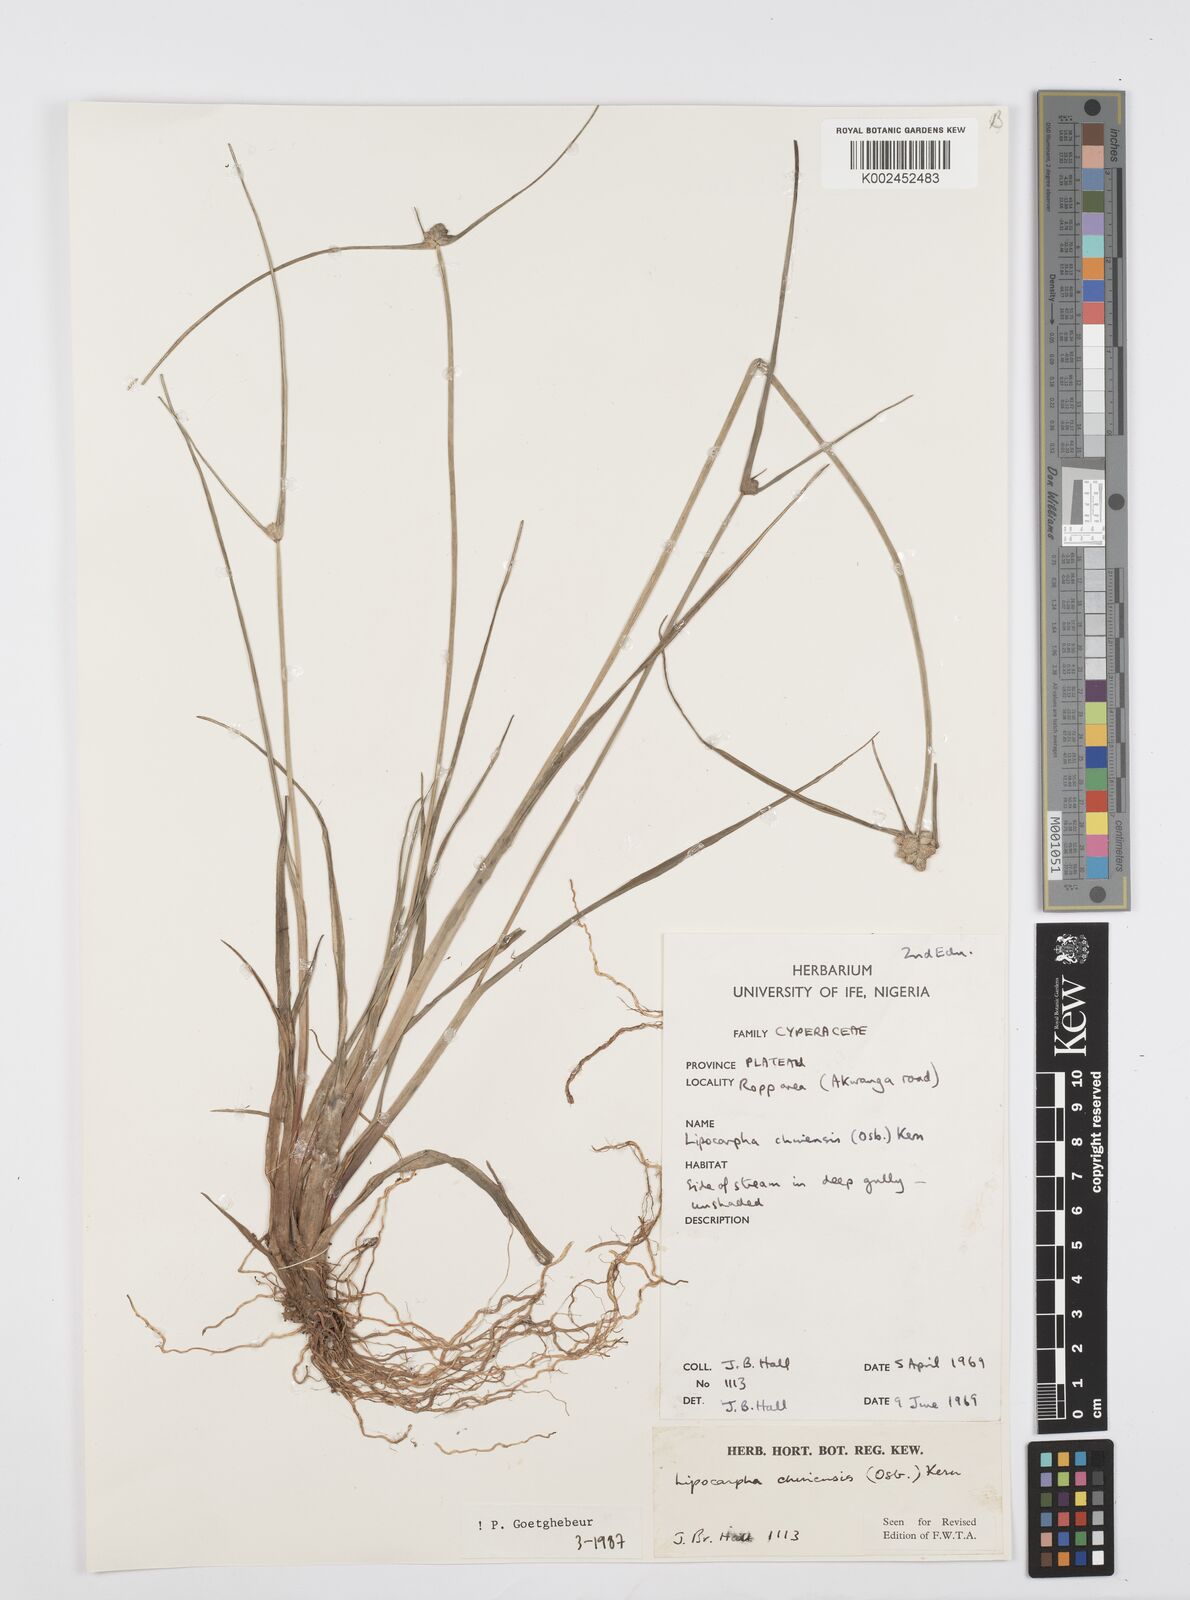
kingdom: Plantae
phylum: Tracheophyta
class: Liliopsida
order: Poales
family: Cyperaceae
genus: Cyperus
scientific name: Cyperus albescens
